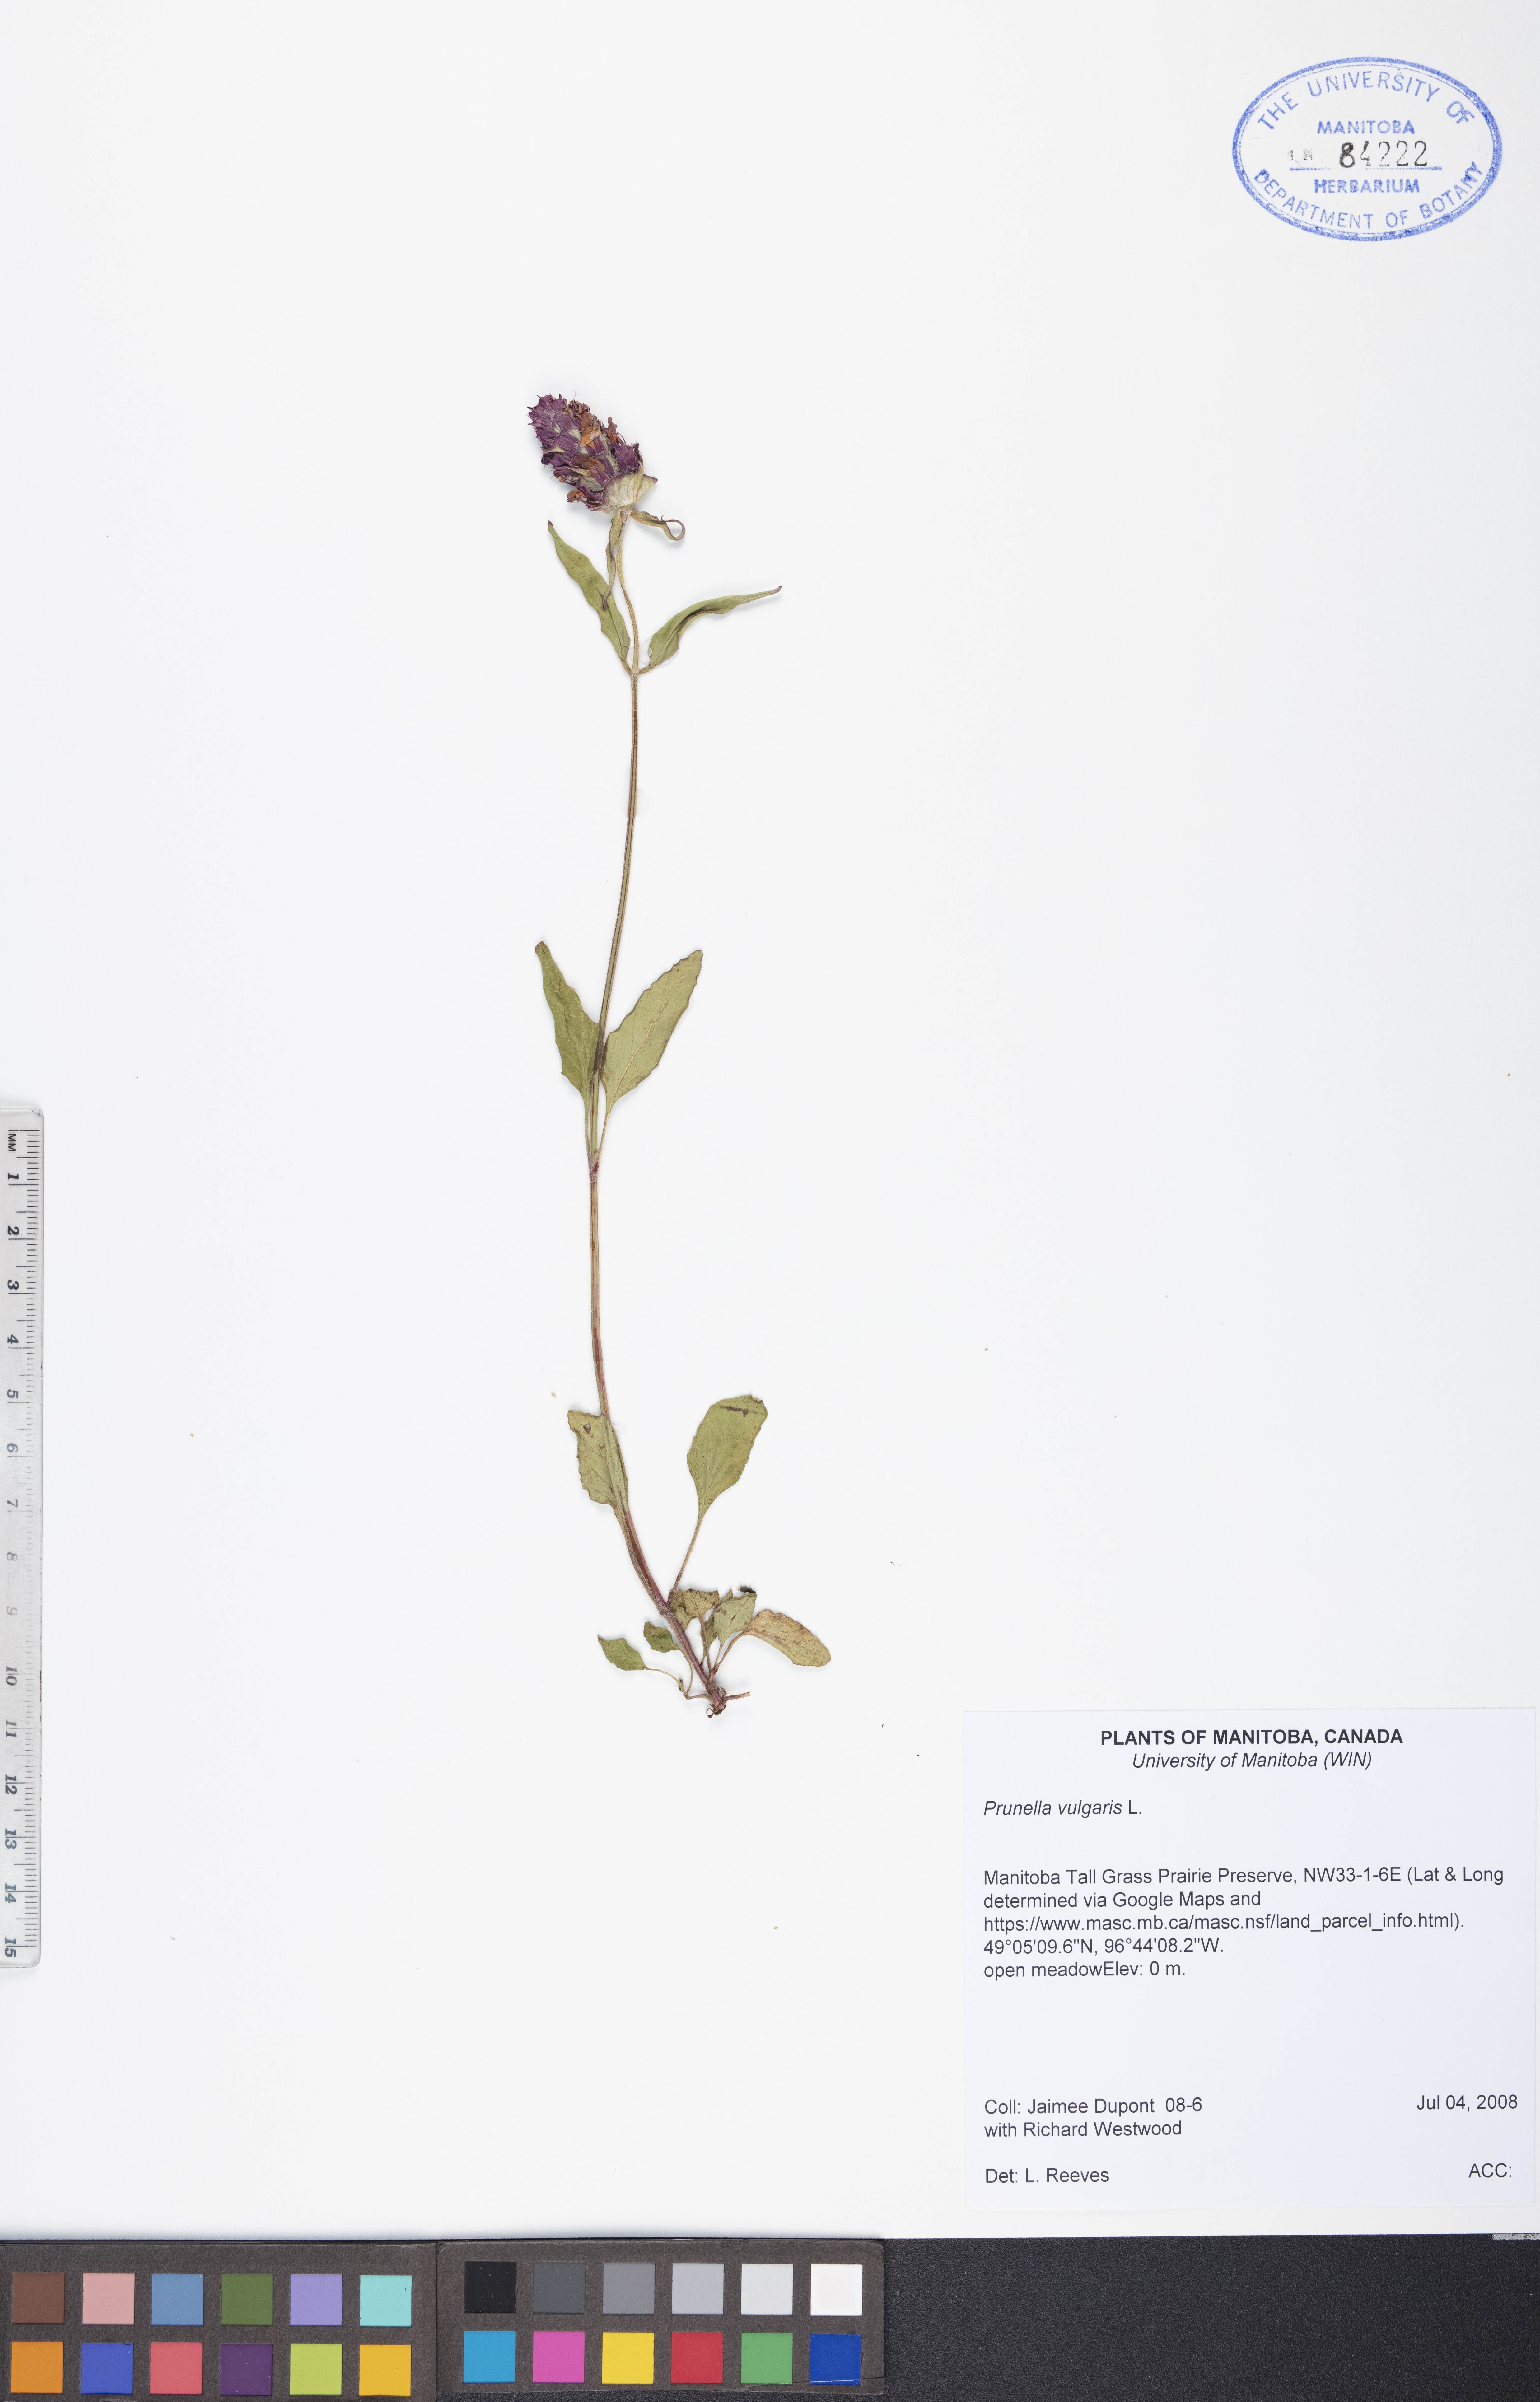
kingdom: Plantae
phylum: Tracheophyta
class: Magnoliopsida
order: Lamiales
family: Lamiaceae
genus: Prunella
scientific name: Prunella vulgaris
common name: Heal-all
